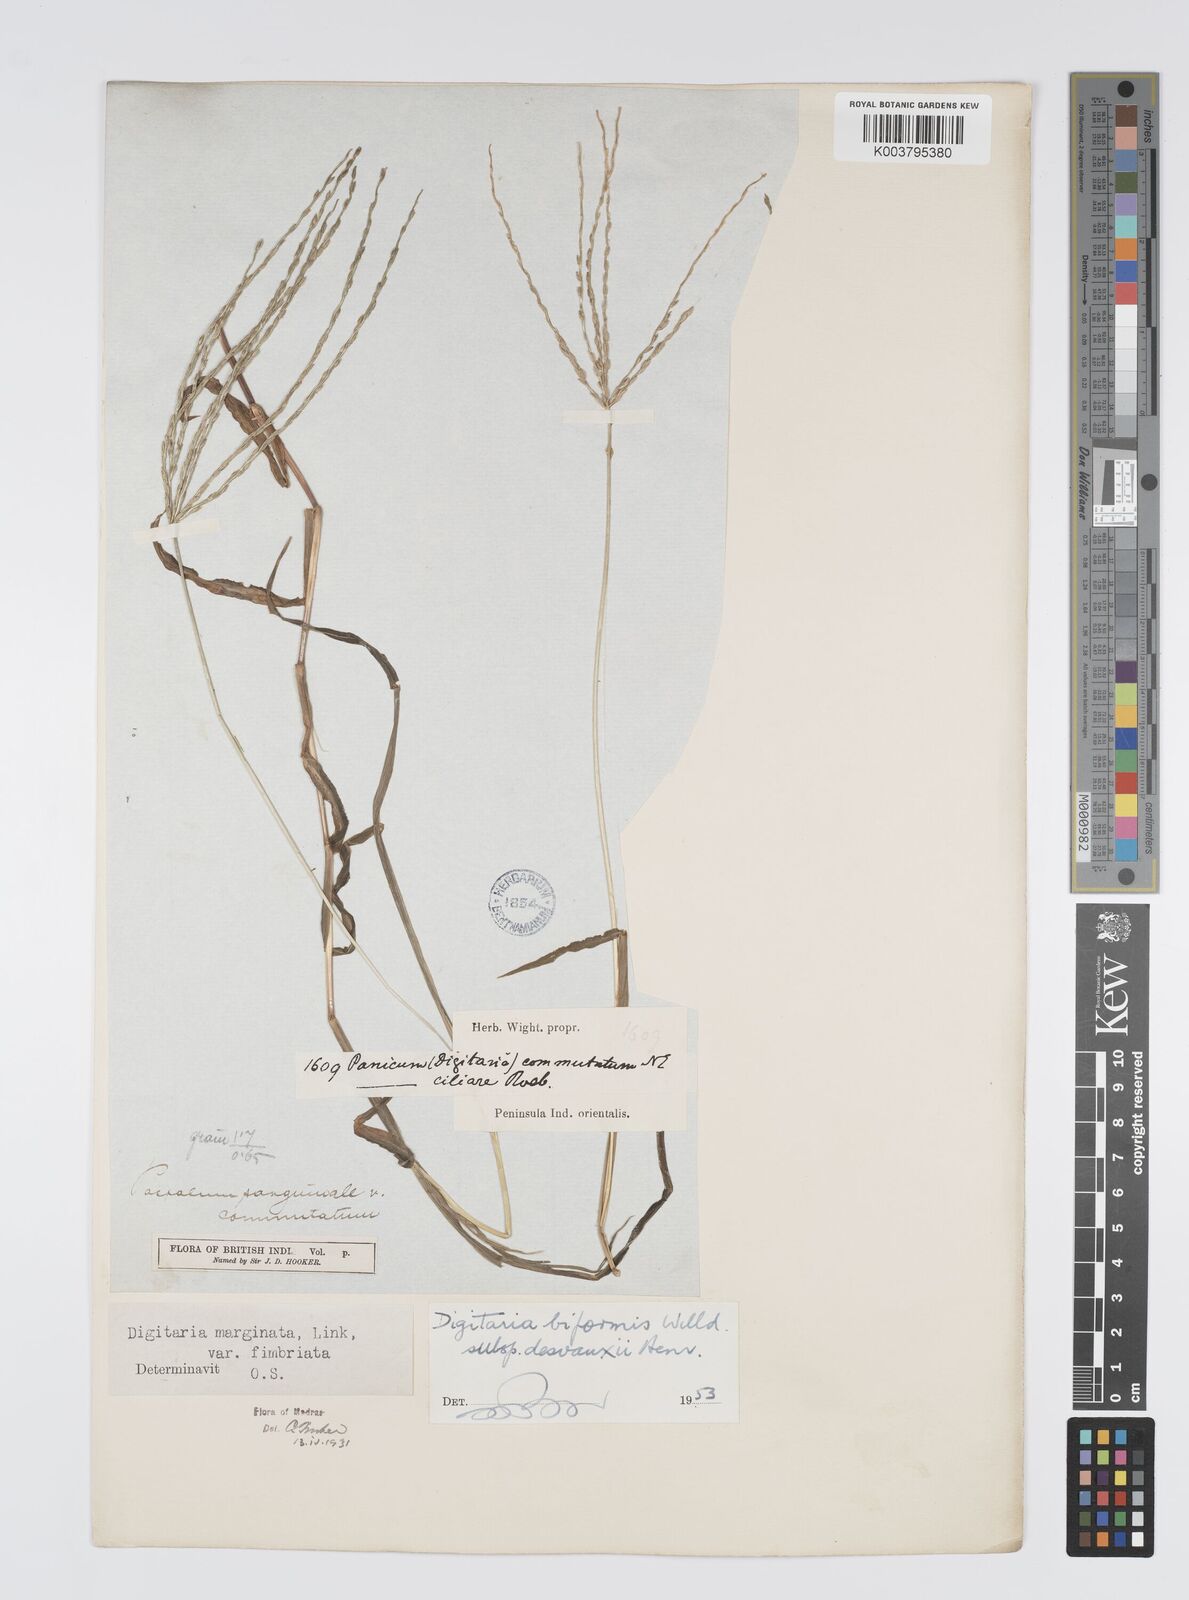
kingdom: Plantae
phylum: Tracheophyta
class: Liliopsida
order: Poales
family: Poaceae
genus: Digitaria
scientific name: Digitaria ciliaris
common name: Tropical finger-grass
